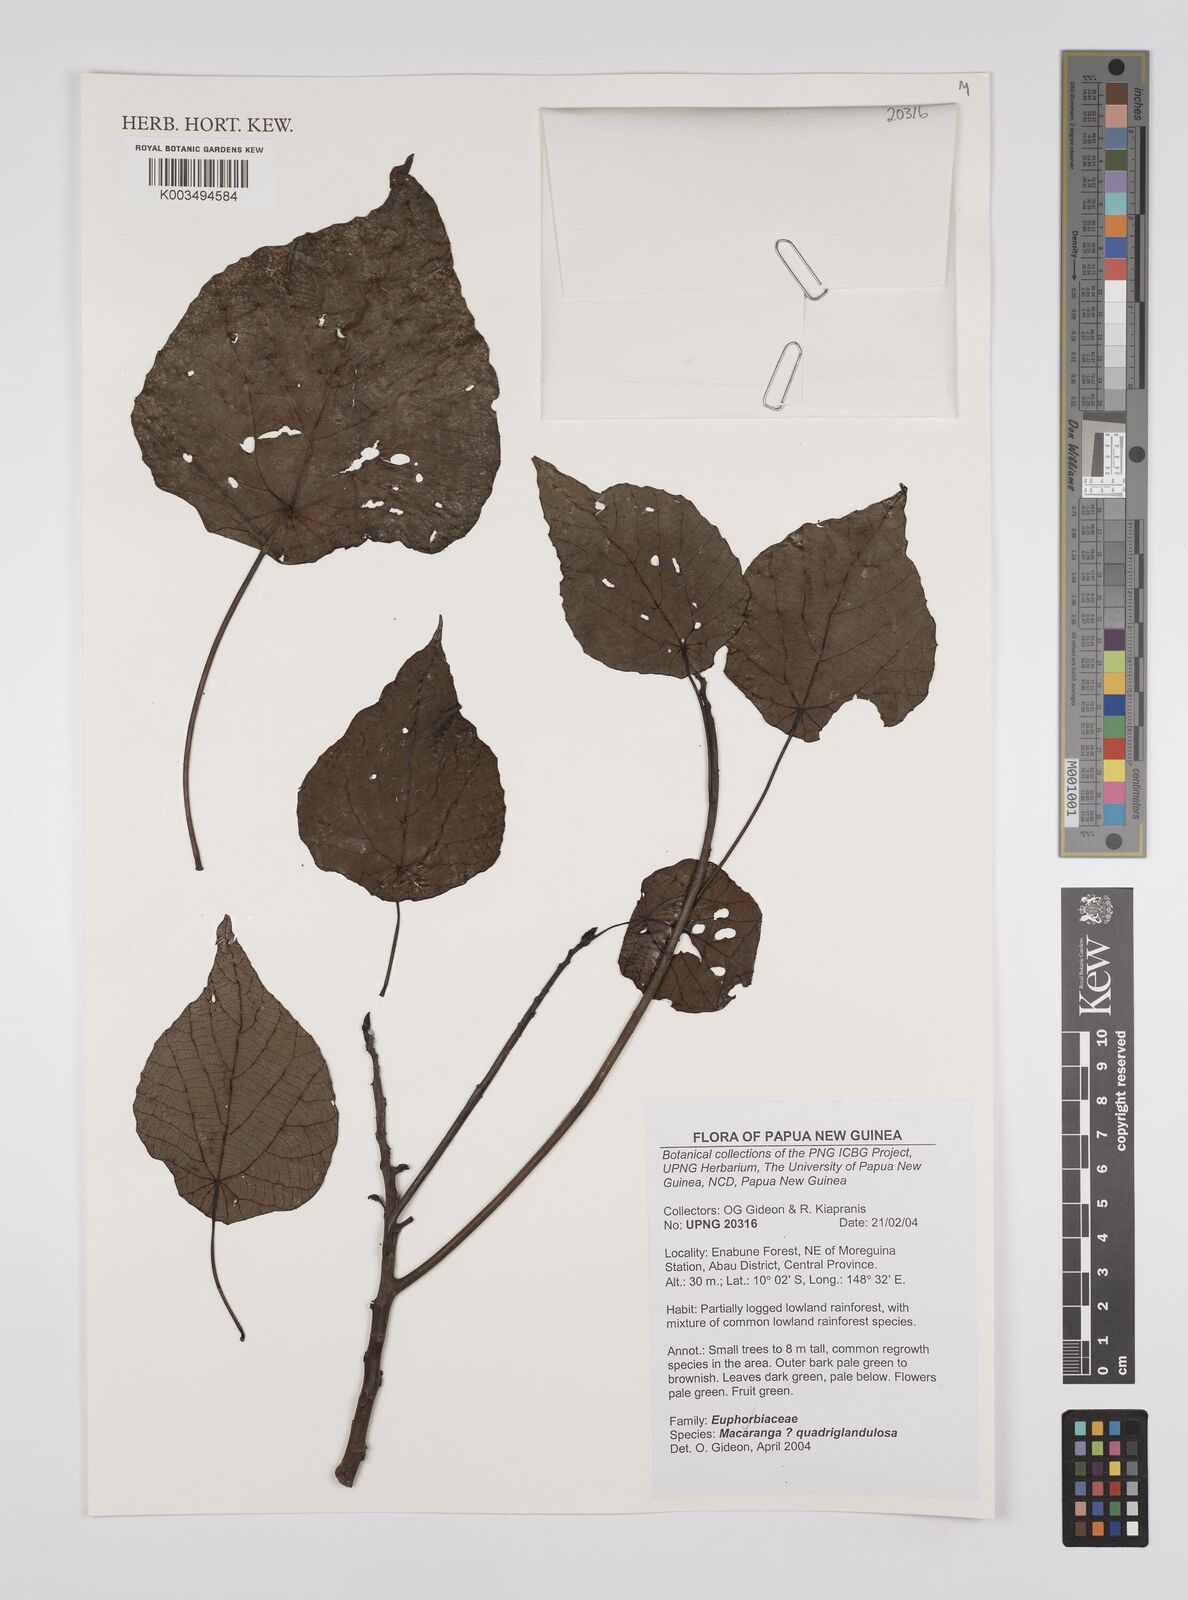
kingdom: Plantae
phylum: Tracheophyta
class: Magnoliopsida
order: Malpighiales
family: Euphorbiaceae
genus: Macaranga
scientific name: Macaranga quadriglandulosa
